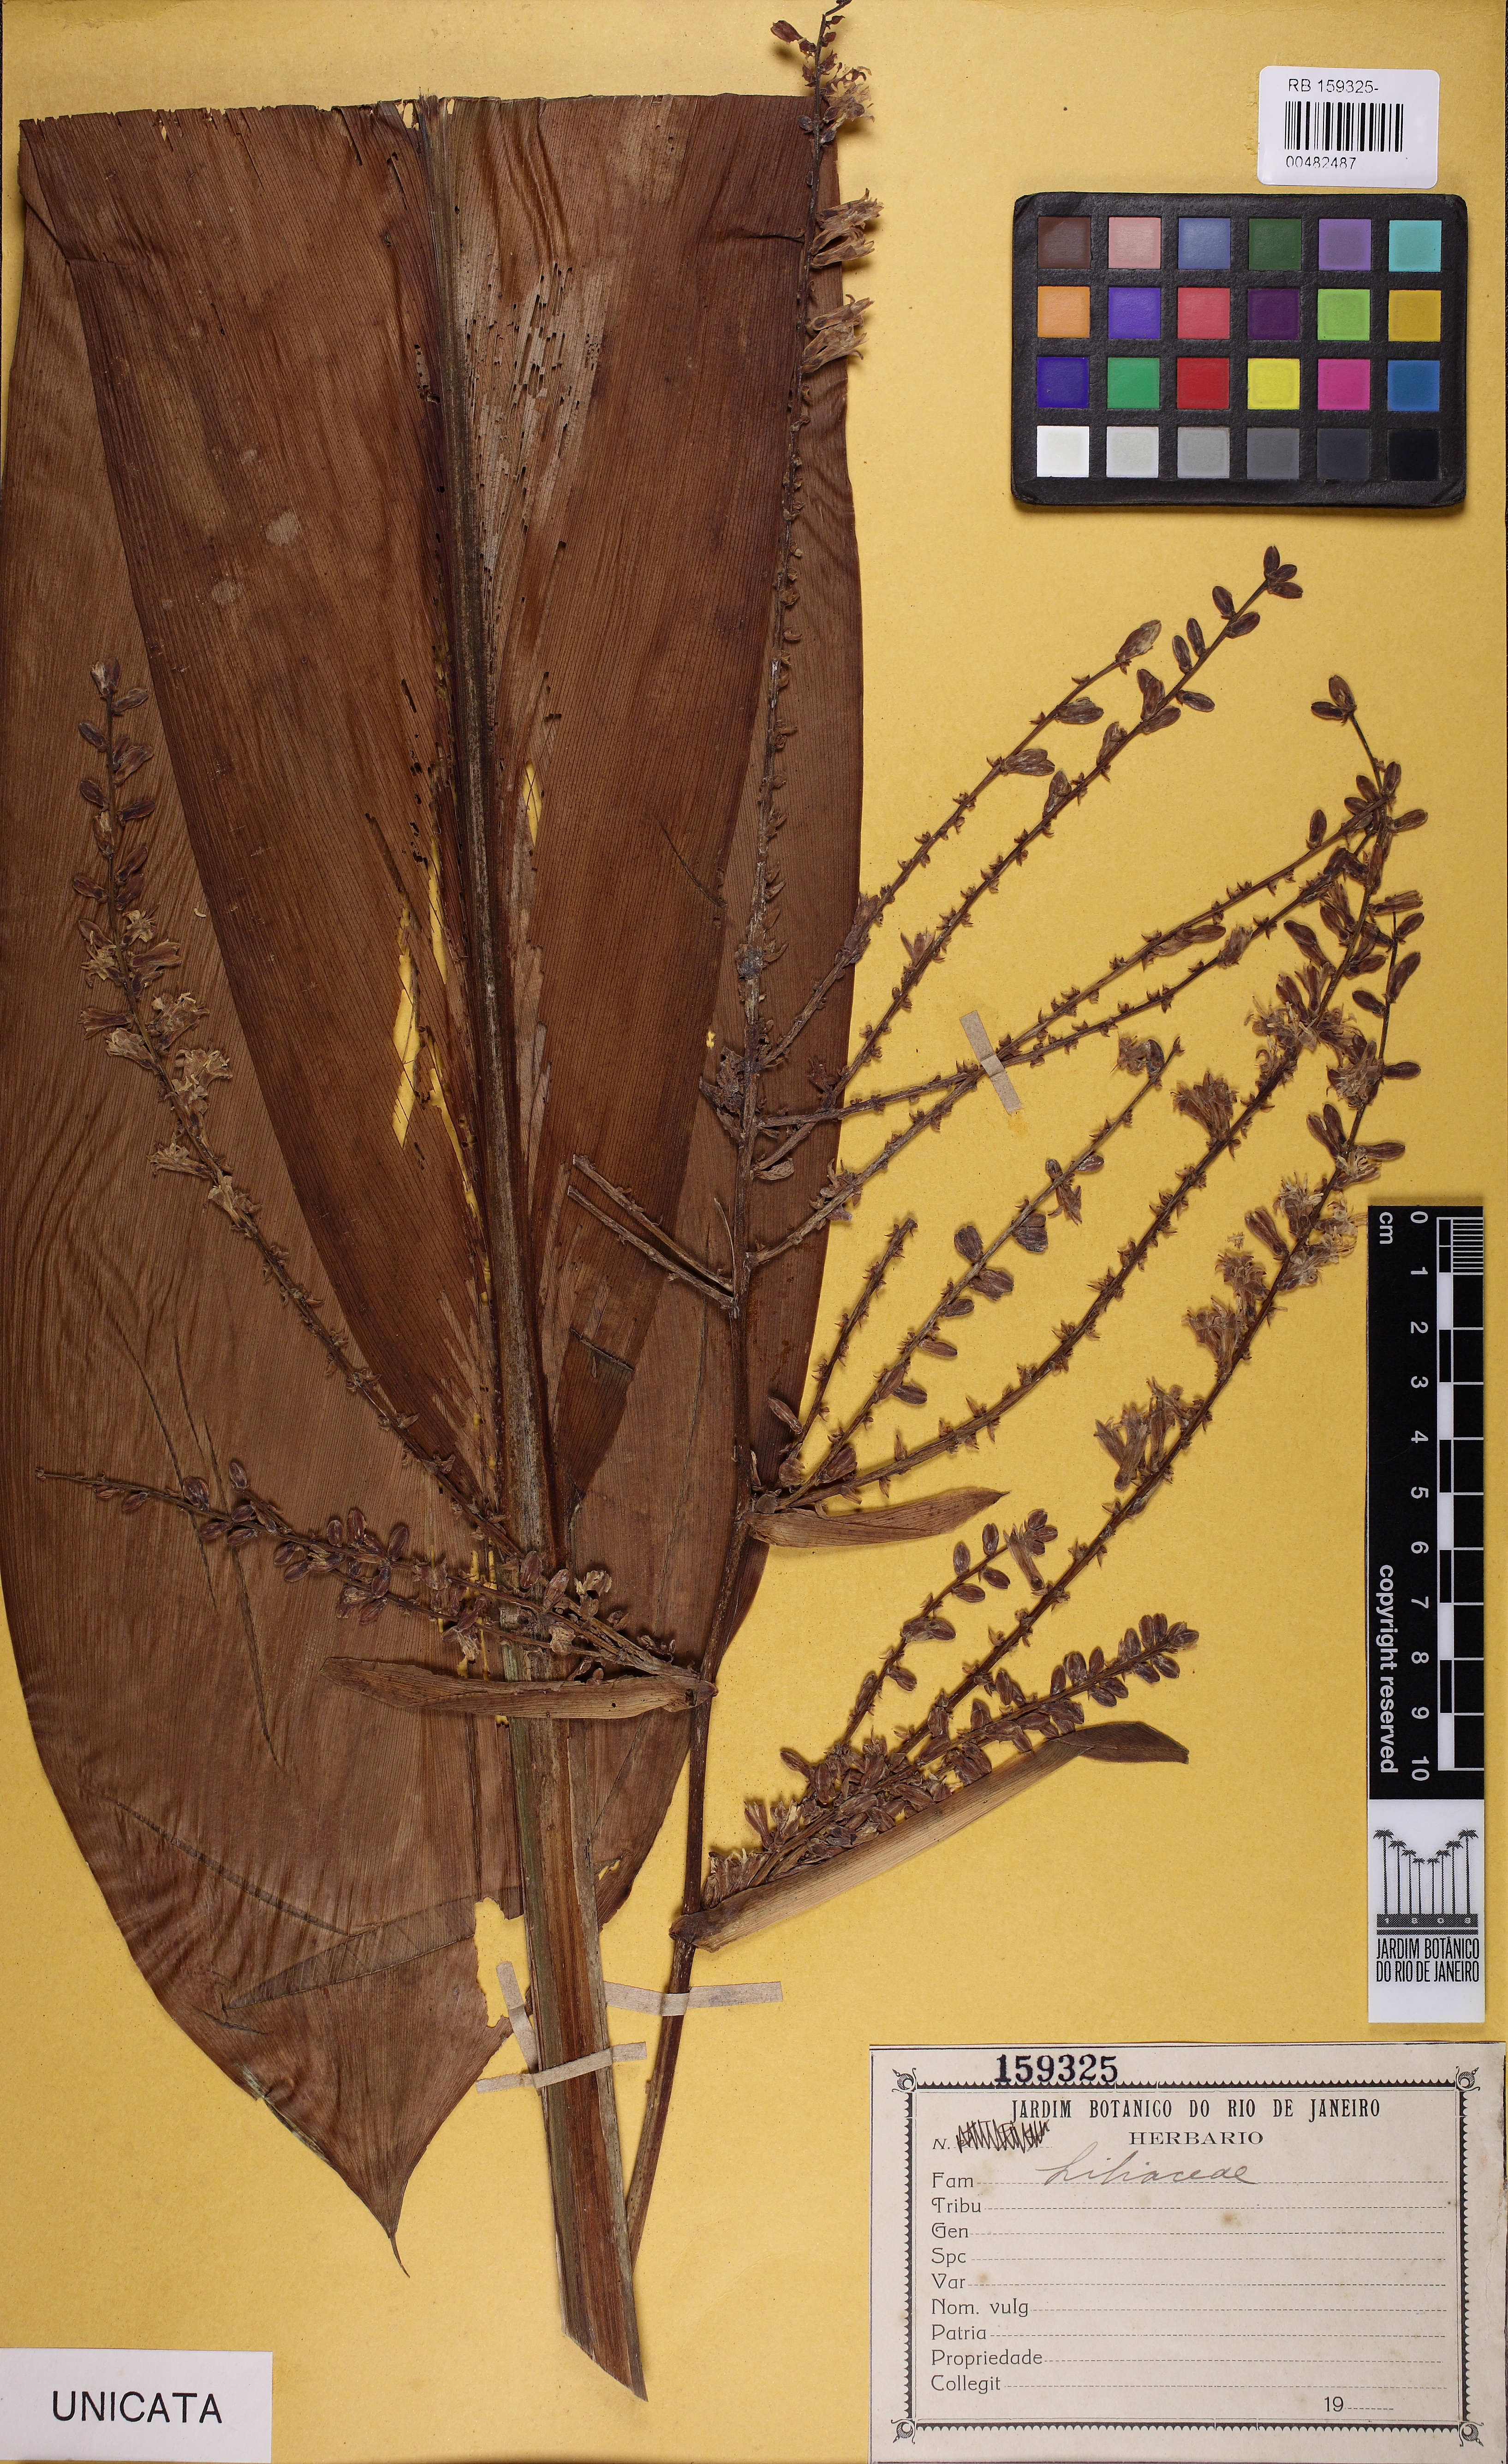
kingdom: Plantae
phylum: Tracheophyta
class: Liliopsida
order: Asparagales
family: Asparagaceae
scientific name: Asparagaceae
